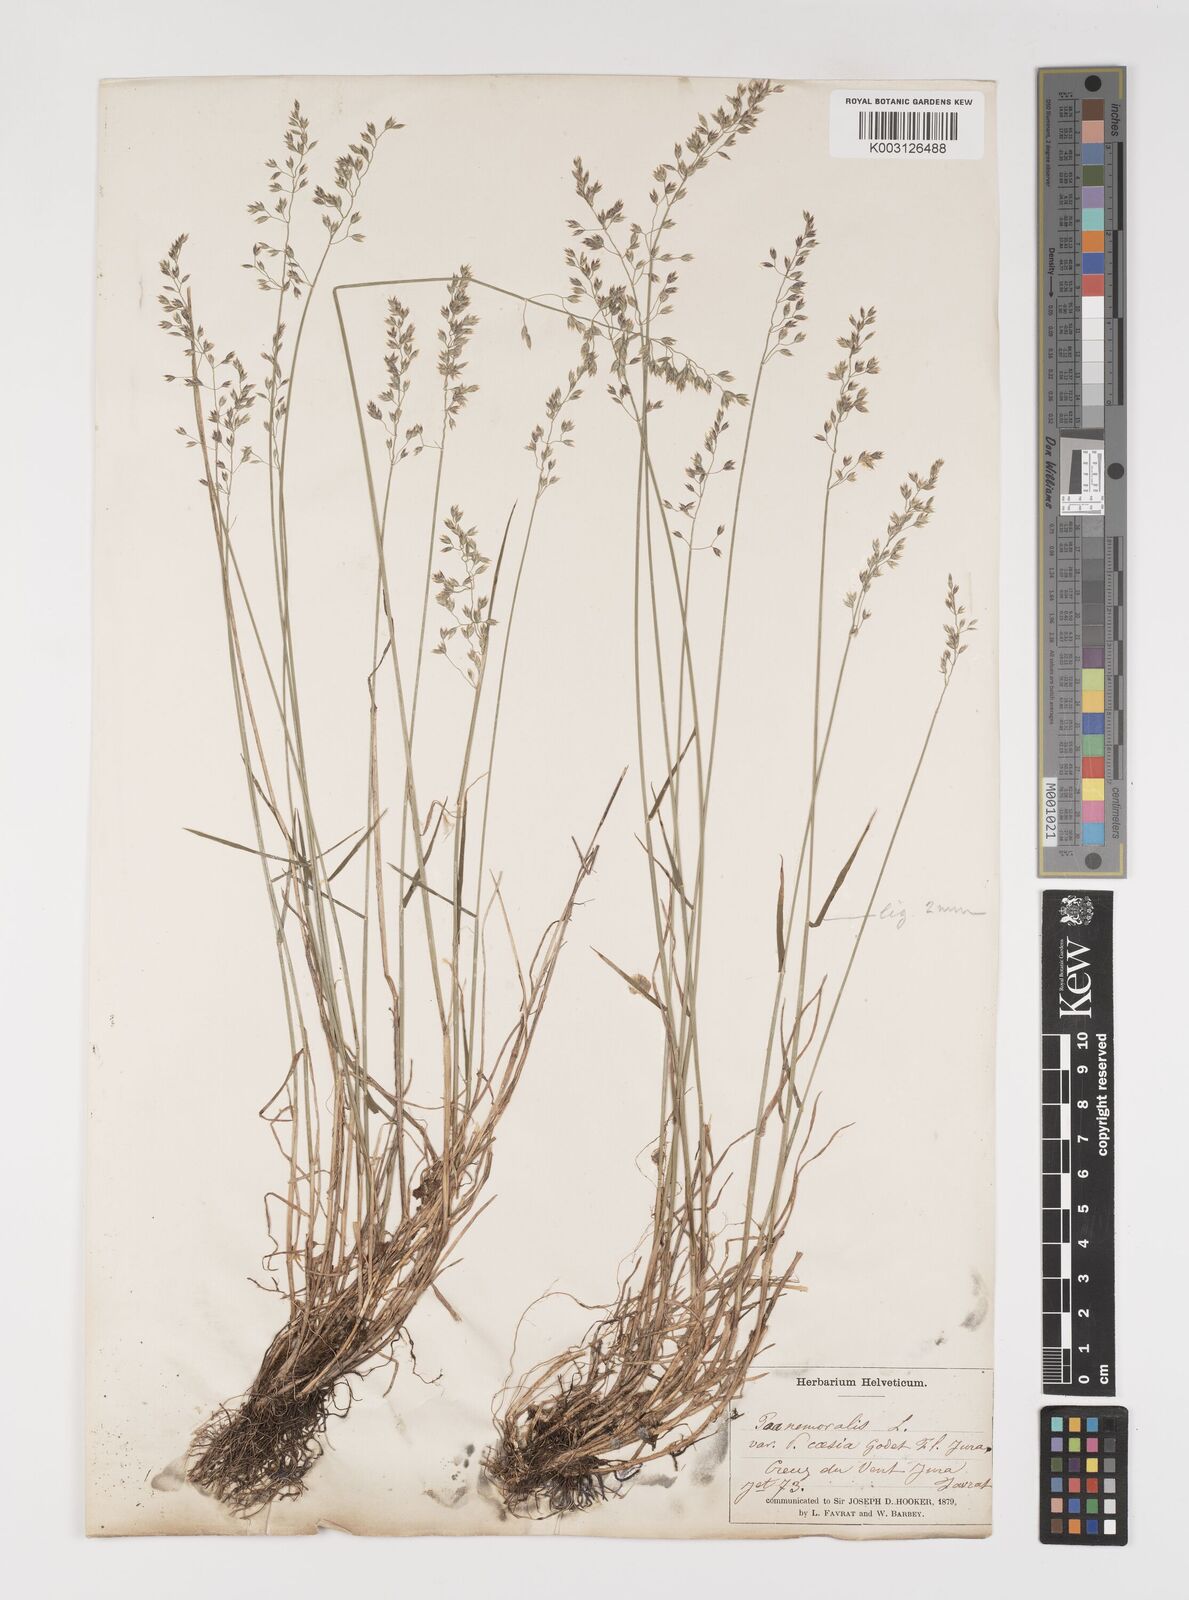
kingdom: Plantae
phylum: Tracheophyta
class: Liliopsida
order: Poales
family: Poaceae
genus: Poa
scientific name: Poa nemoralis
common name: Wood bluegrass
